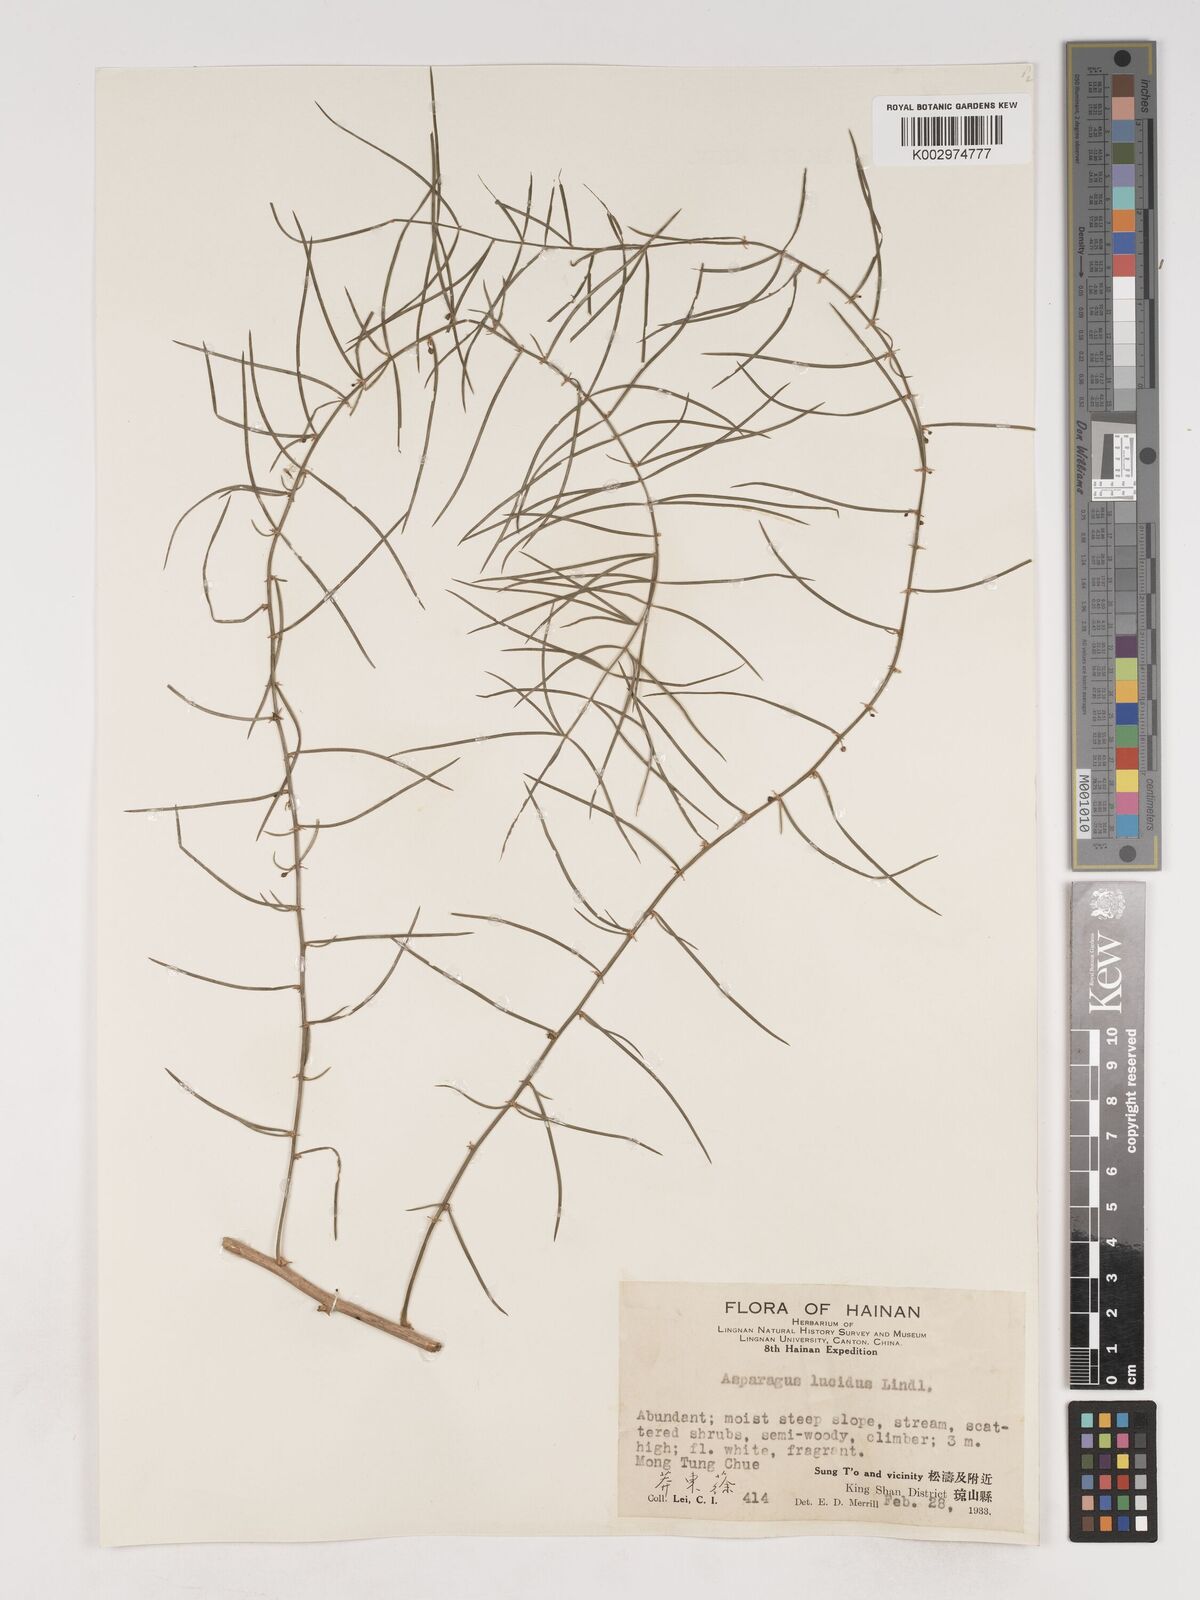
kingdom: Plantae
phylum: Tracheophyta
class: Liliopsida
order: Asparagales
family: Asparagaceae
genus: Asparagus
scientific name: Asparagus cochinchinensis
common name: Chinese asparagus
